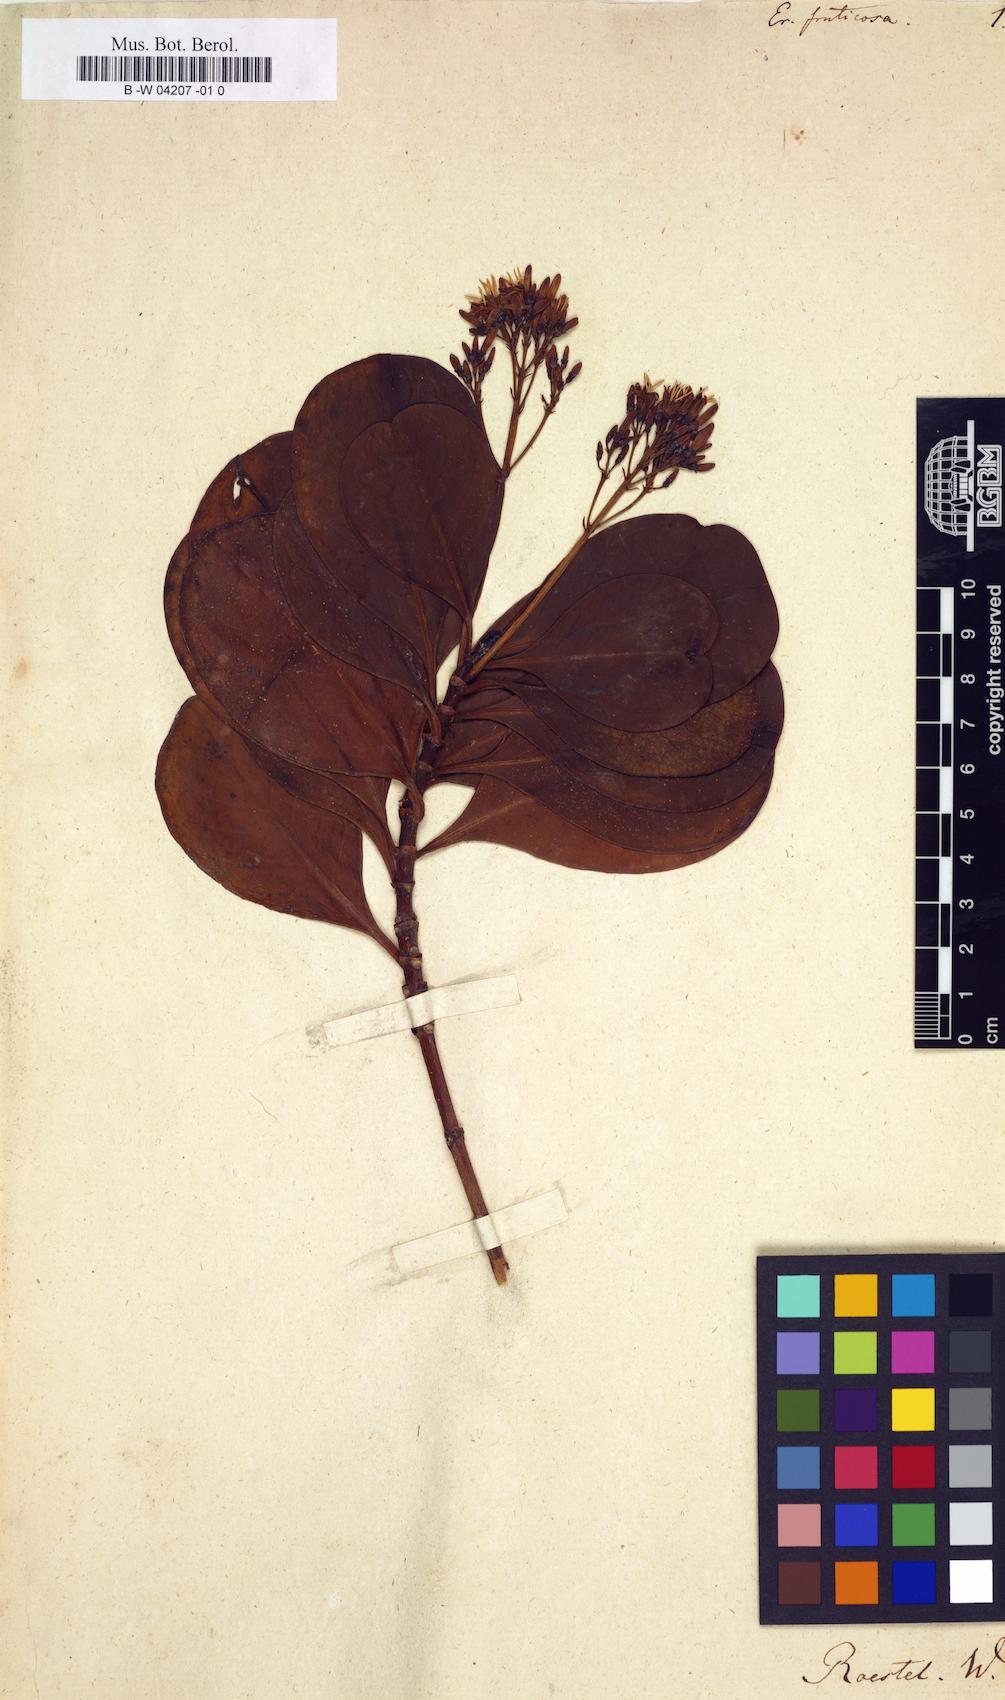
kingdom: Plantae
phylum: Tracheophyta
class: Magnoliopsida
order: Gentianales
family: Rubiaceae
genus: Erithalis
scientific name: Erithalis fruticosa
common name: Candlewood
